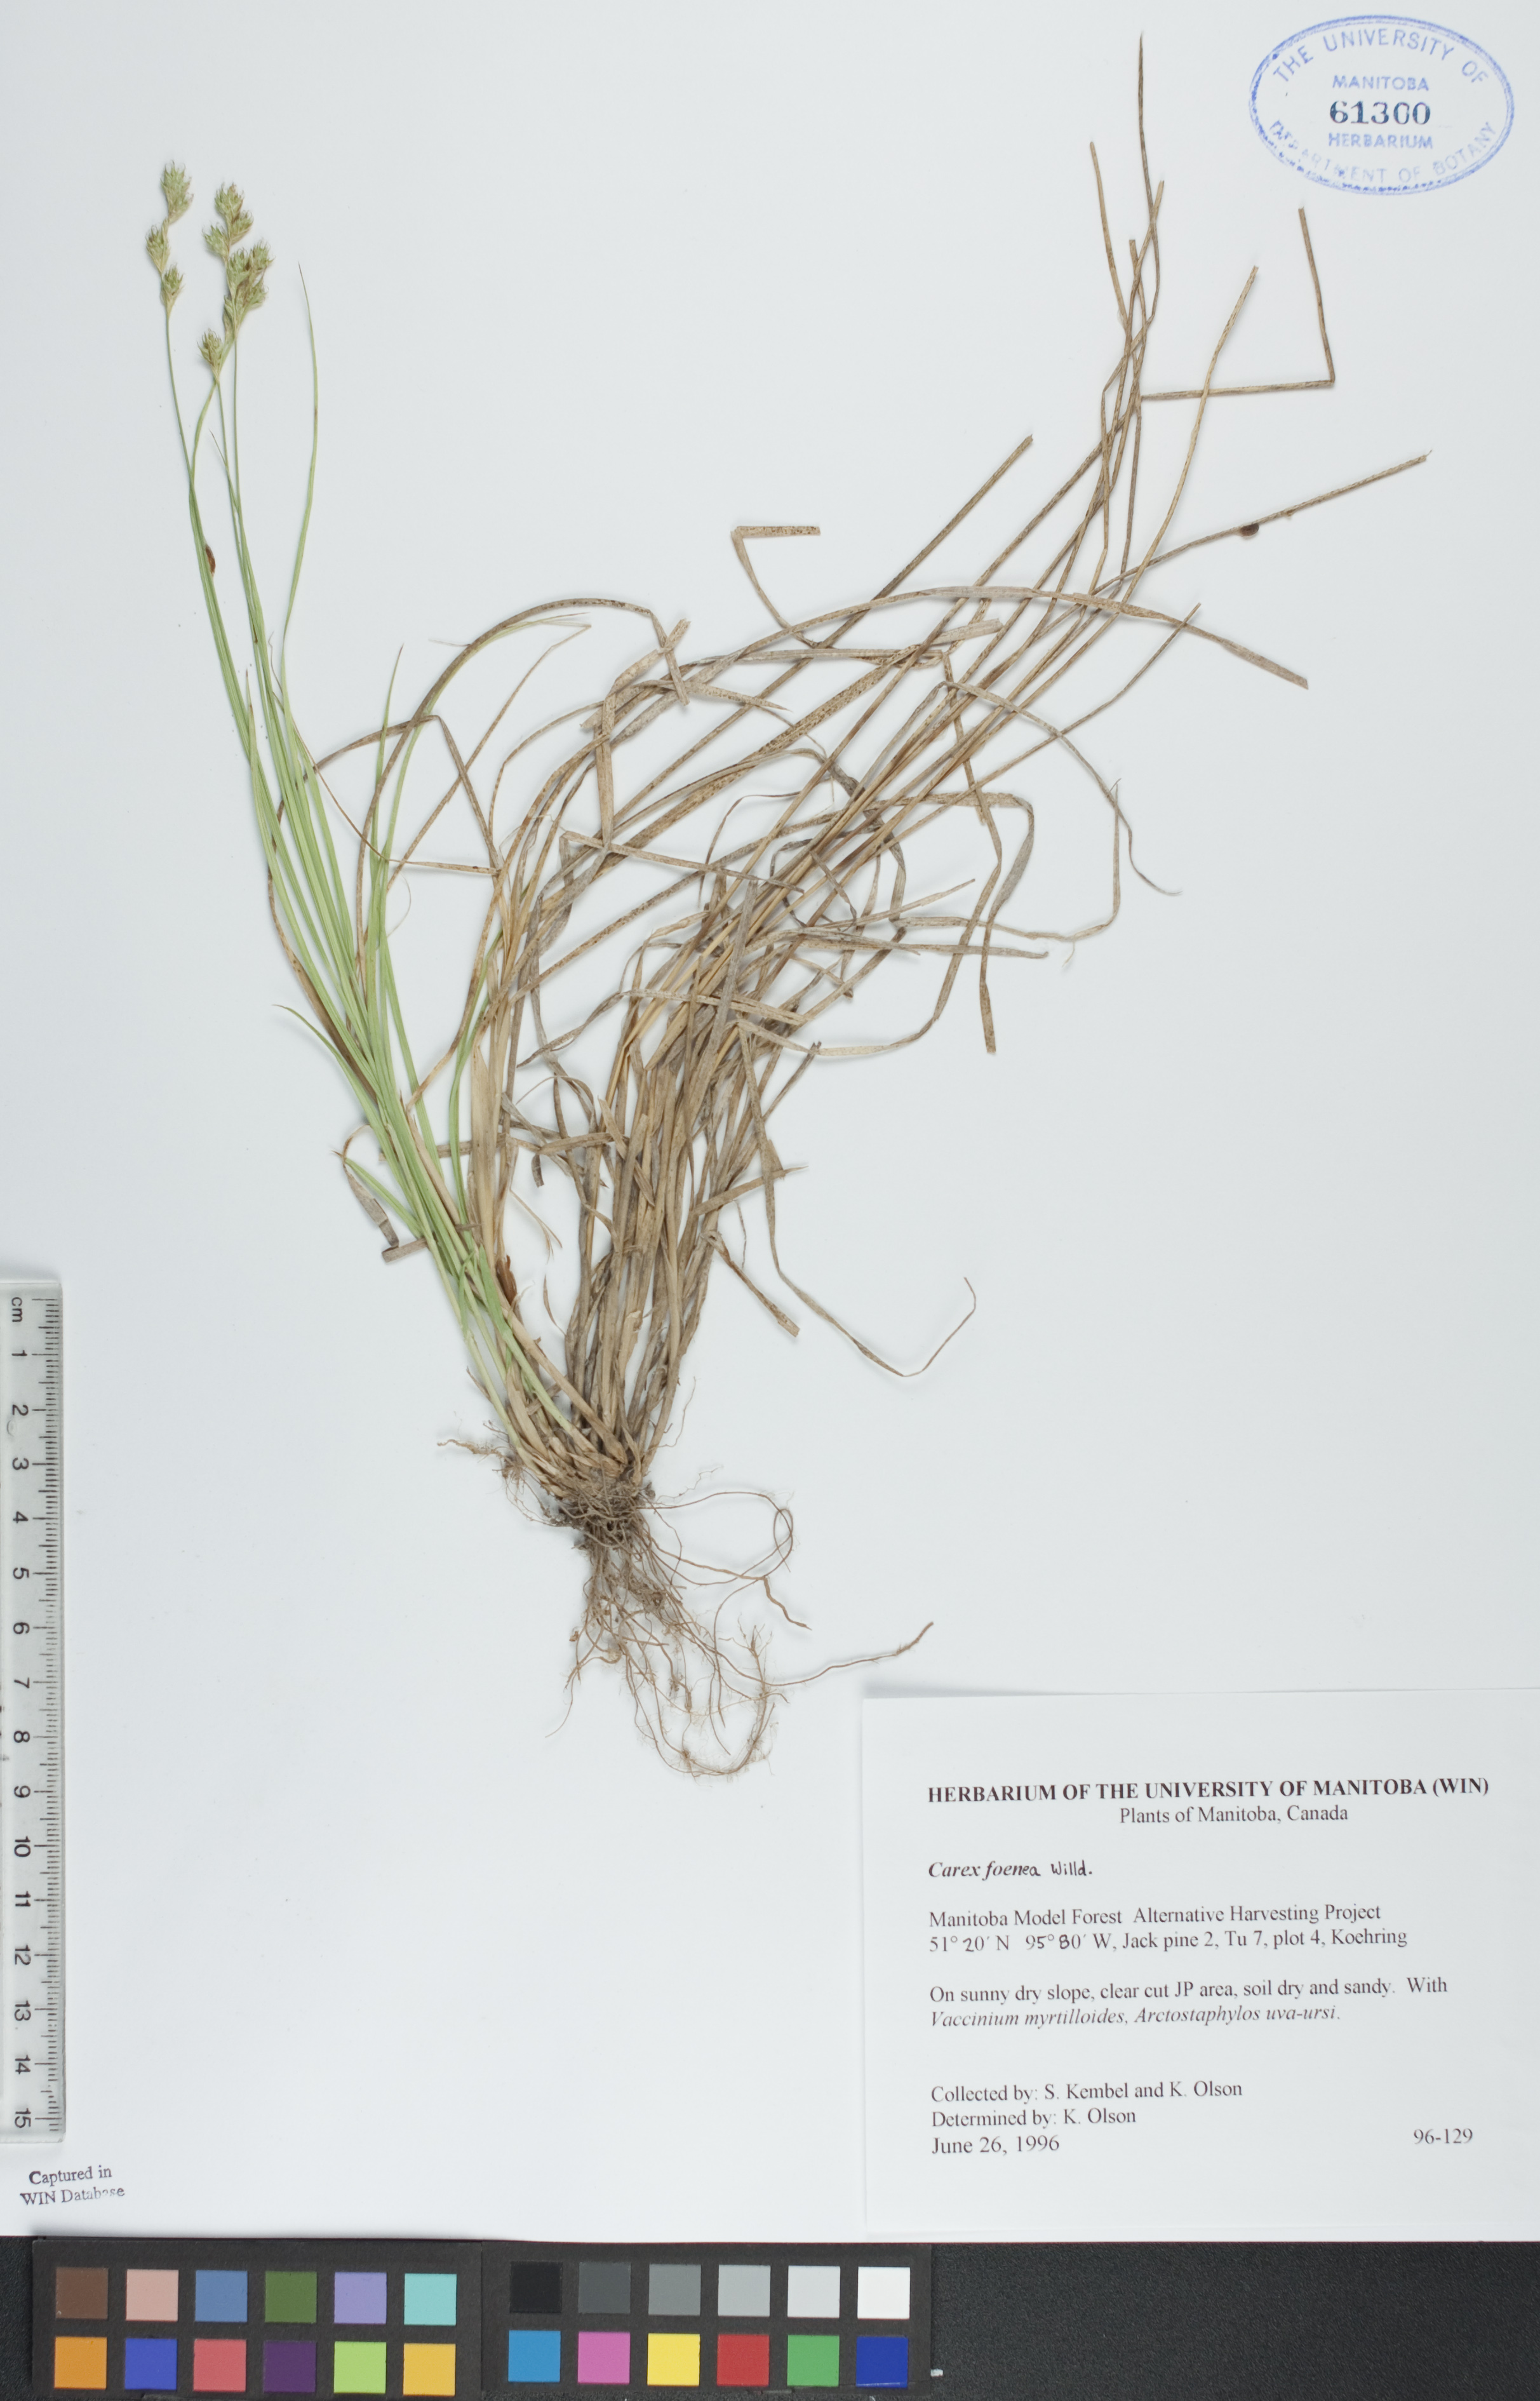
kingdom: Plantae
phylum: Tracheophyta
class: Liliopsida
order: Poales
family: Cyperaceae
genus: Carex
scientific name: Carex foenea
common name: Bronze sedge
